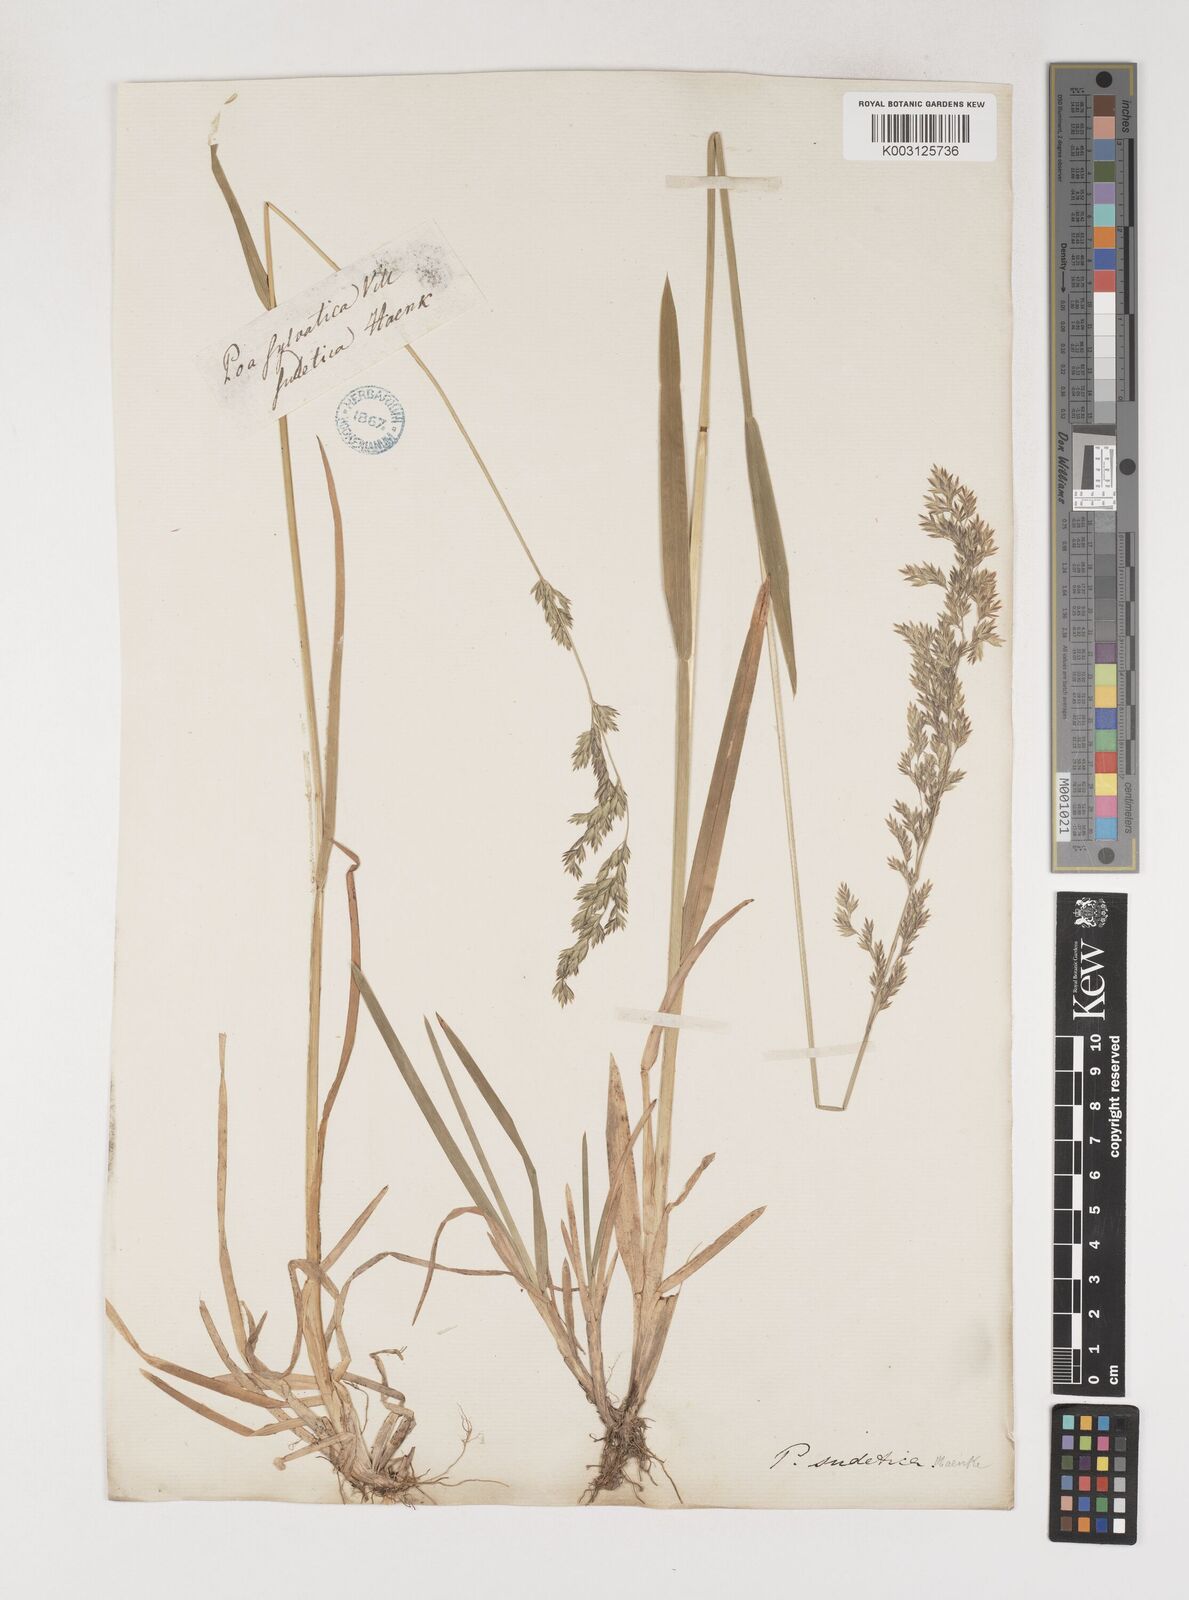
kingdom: Plantae
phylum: Tracheophyta
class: Liliopsida
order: Poales
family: Poaceae
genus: Poa
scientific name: Poa chaixii
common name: Broad-leaved meadow-grass
